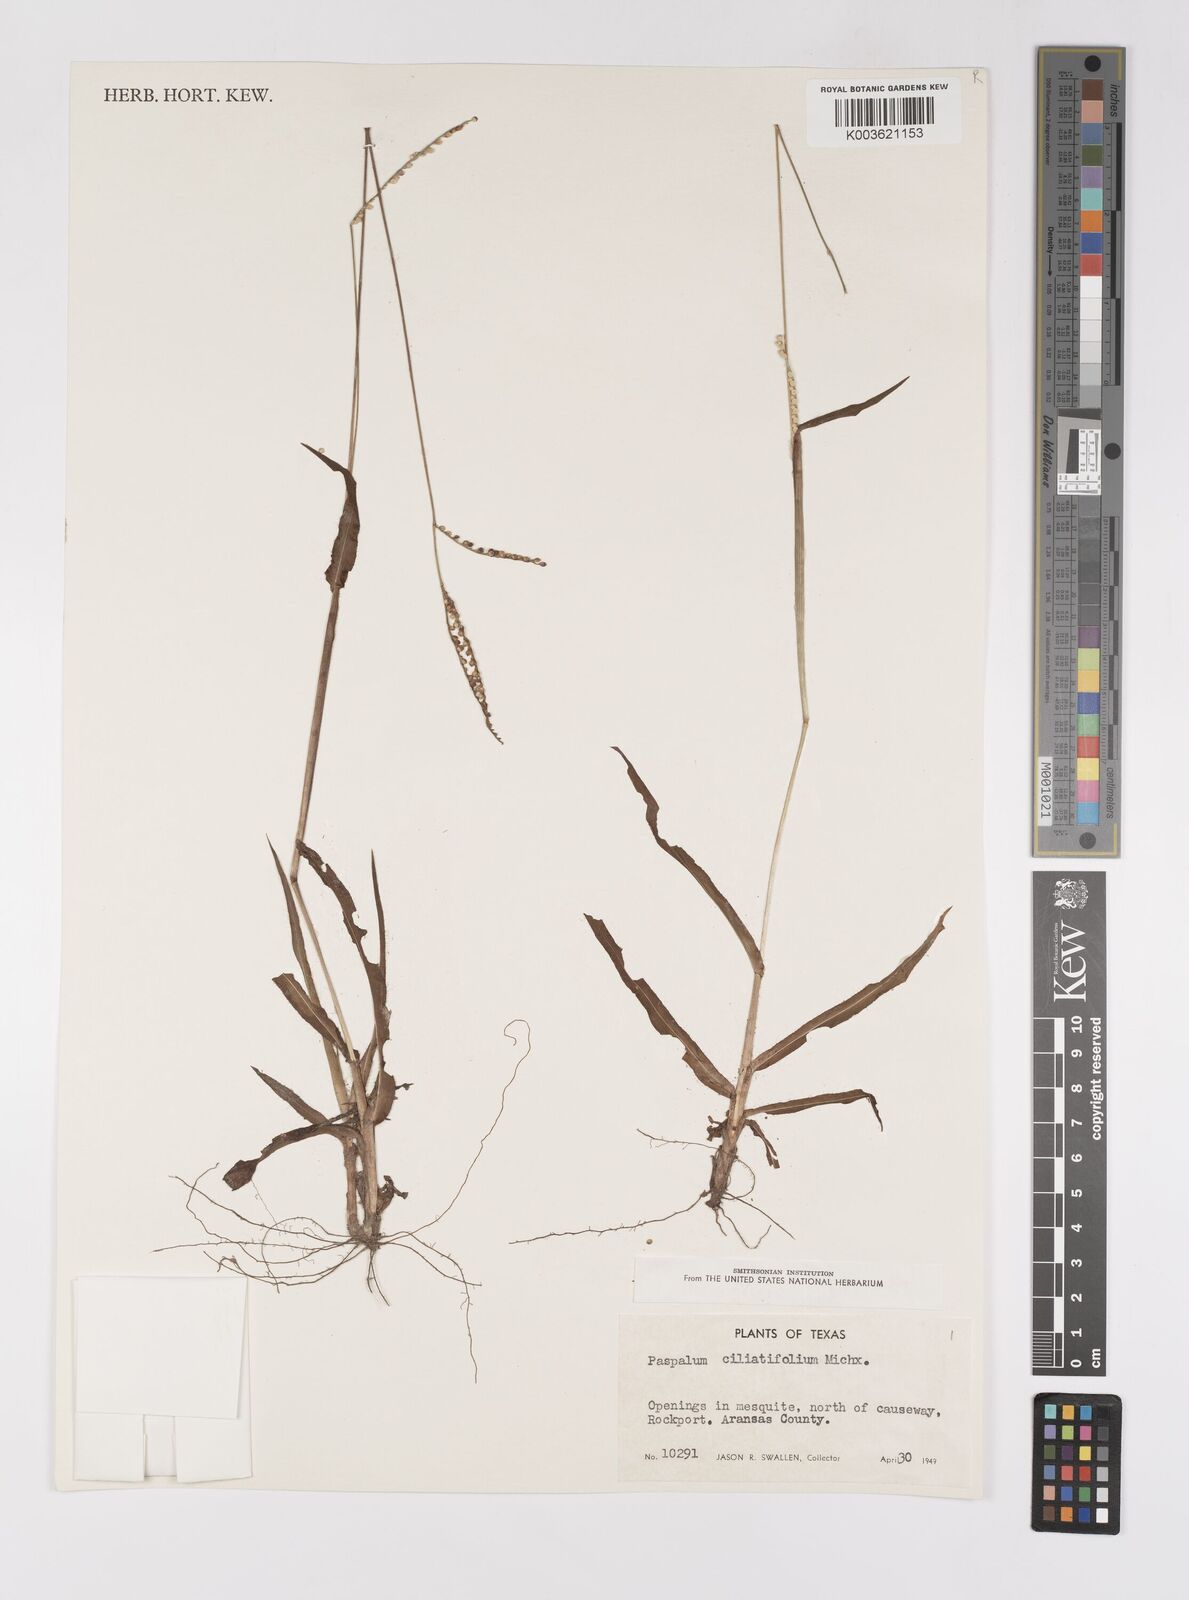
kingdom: Plantae
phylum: Tracheophyta
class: Liliopsida
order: Poales
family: Poaceae
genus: Paspalum
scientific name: Paspalum setaceum
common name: Slender paspalum
